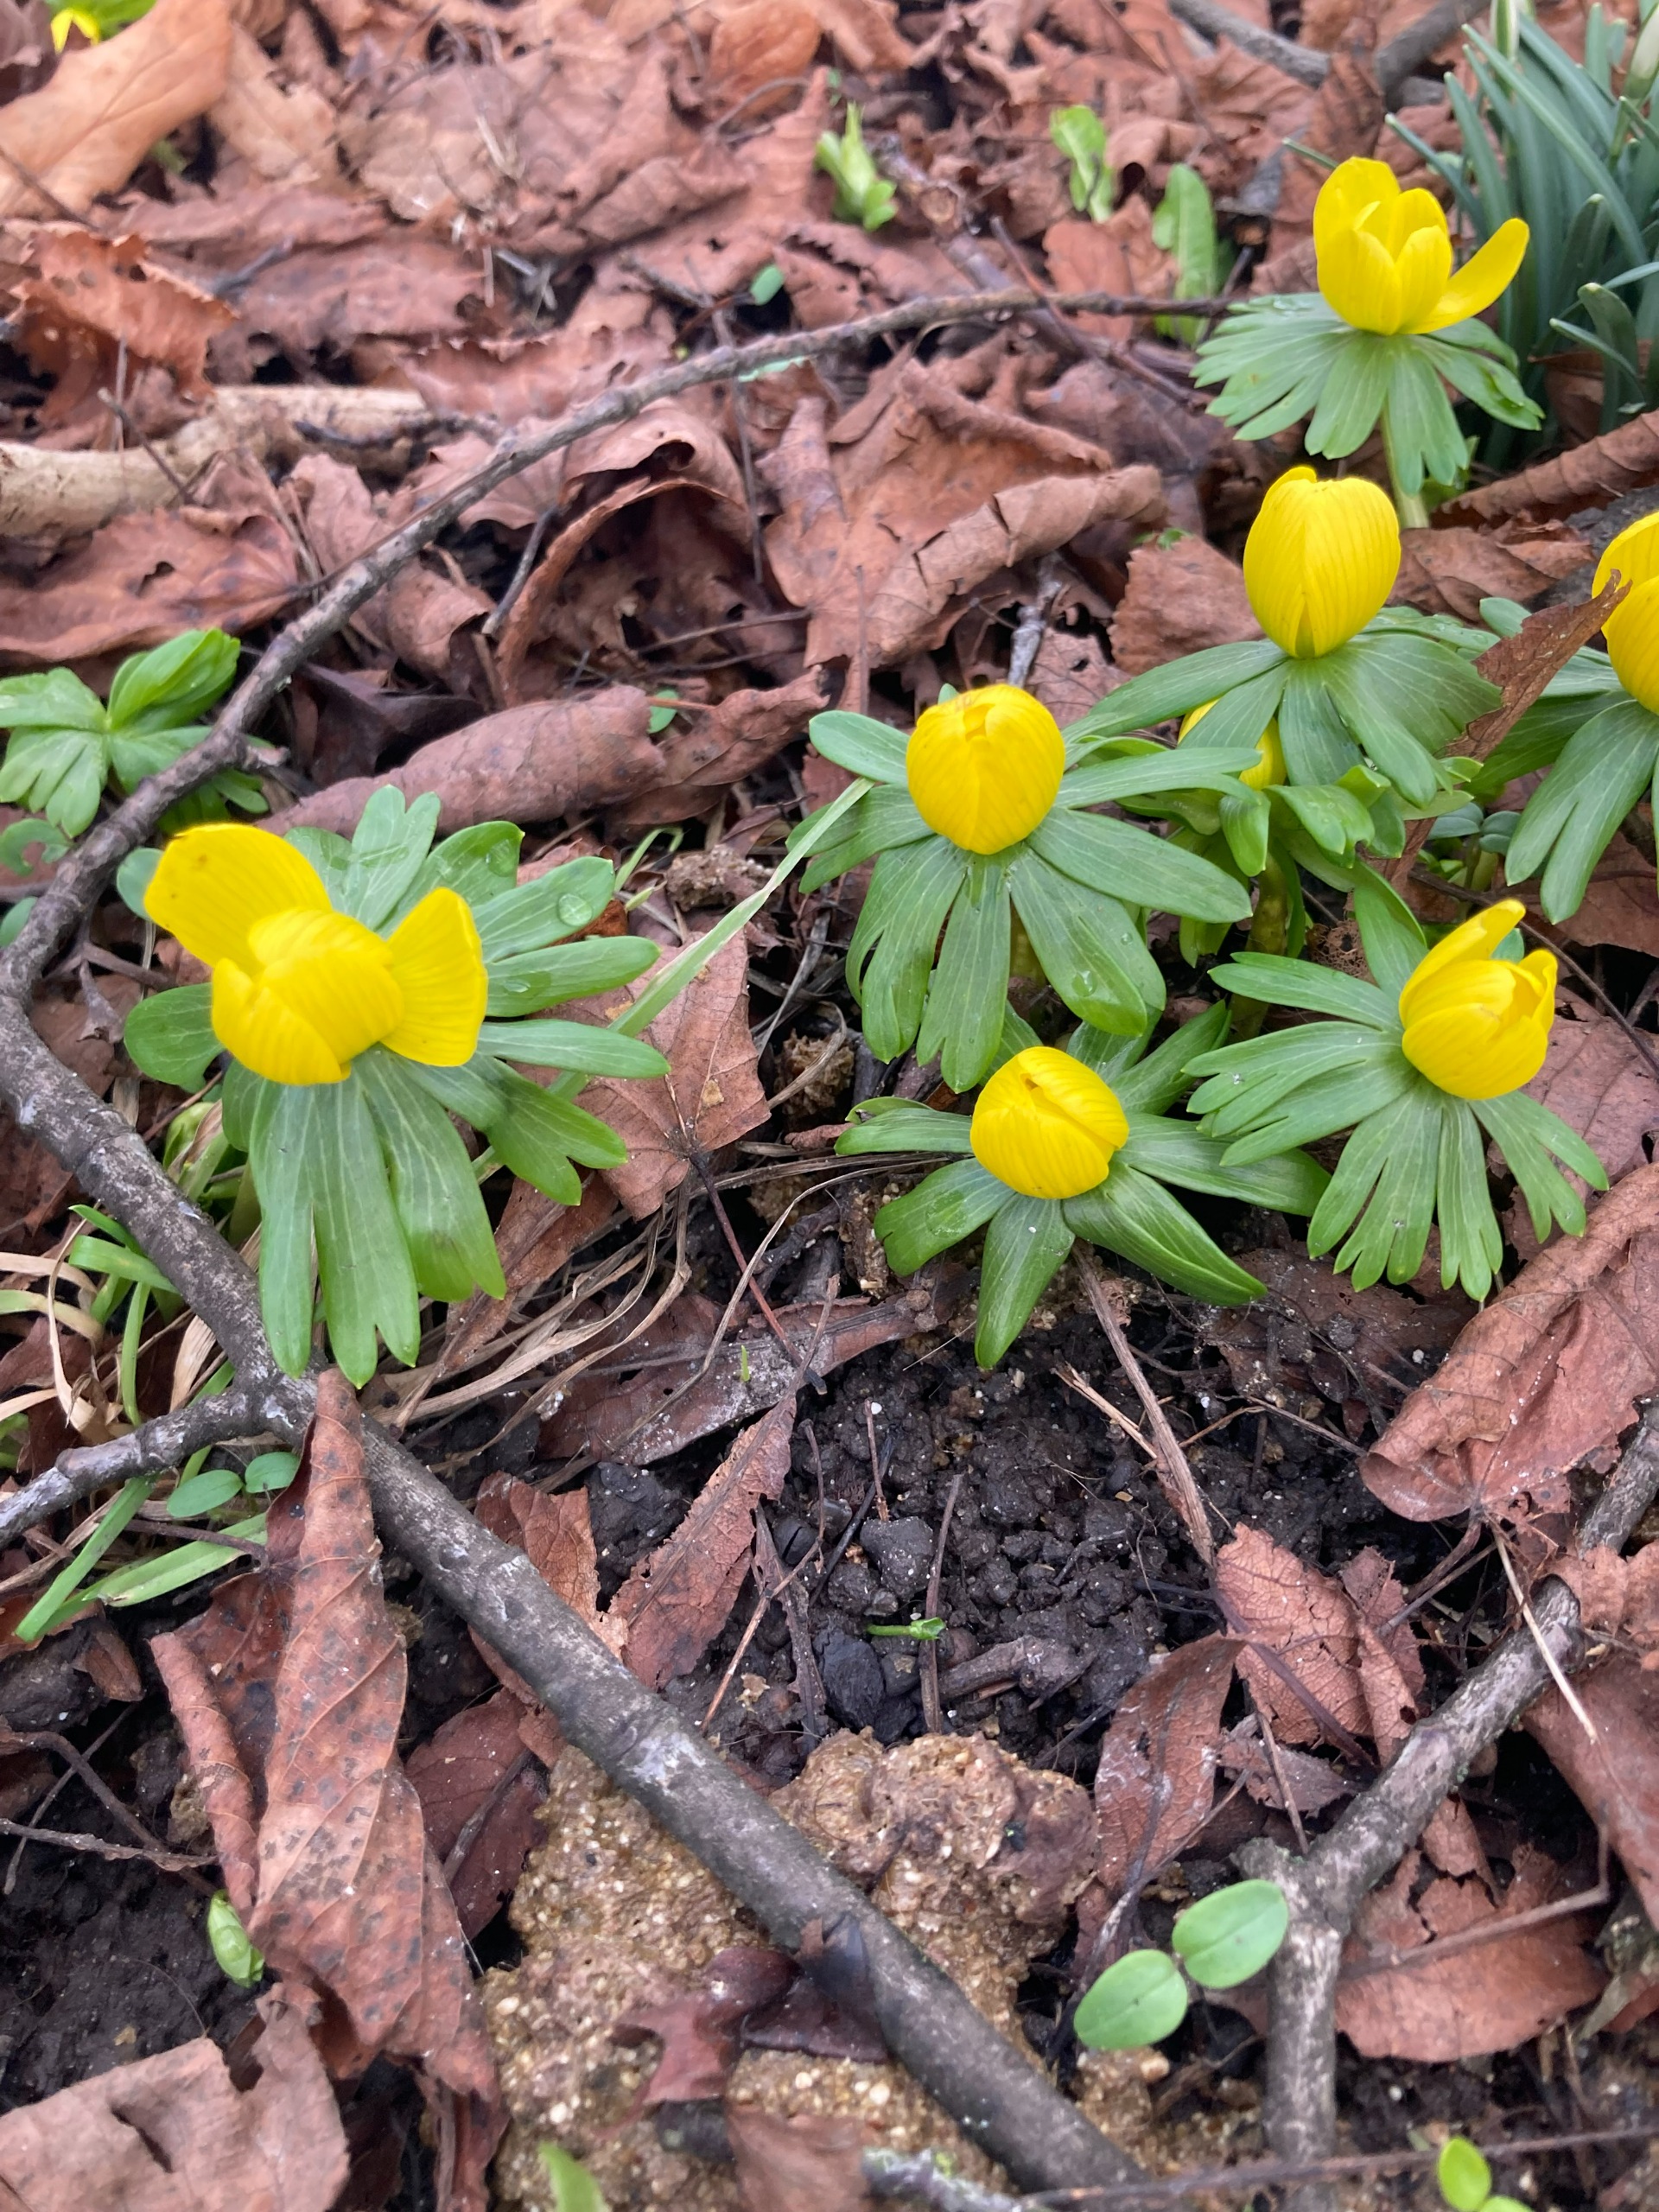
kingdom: Plantae
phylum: Tracheophyta
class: Magnoliopsida
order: Ranunculales
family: Ranunculaceae
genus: Eranthis
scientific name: Eranthis hyemalis
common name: Erantis
